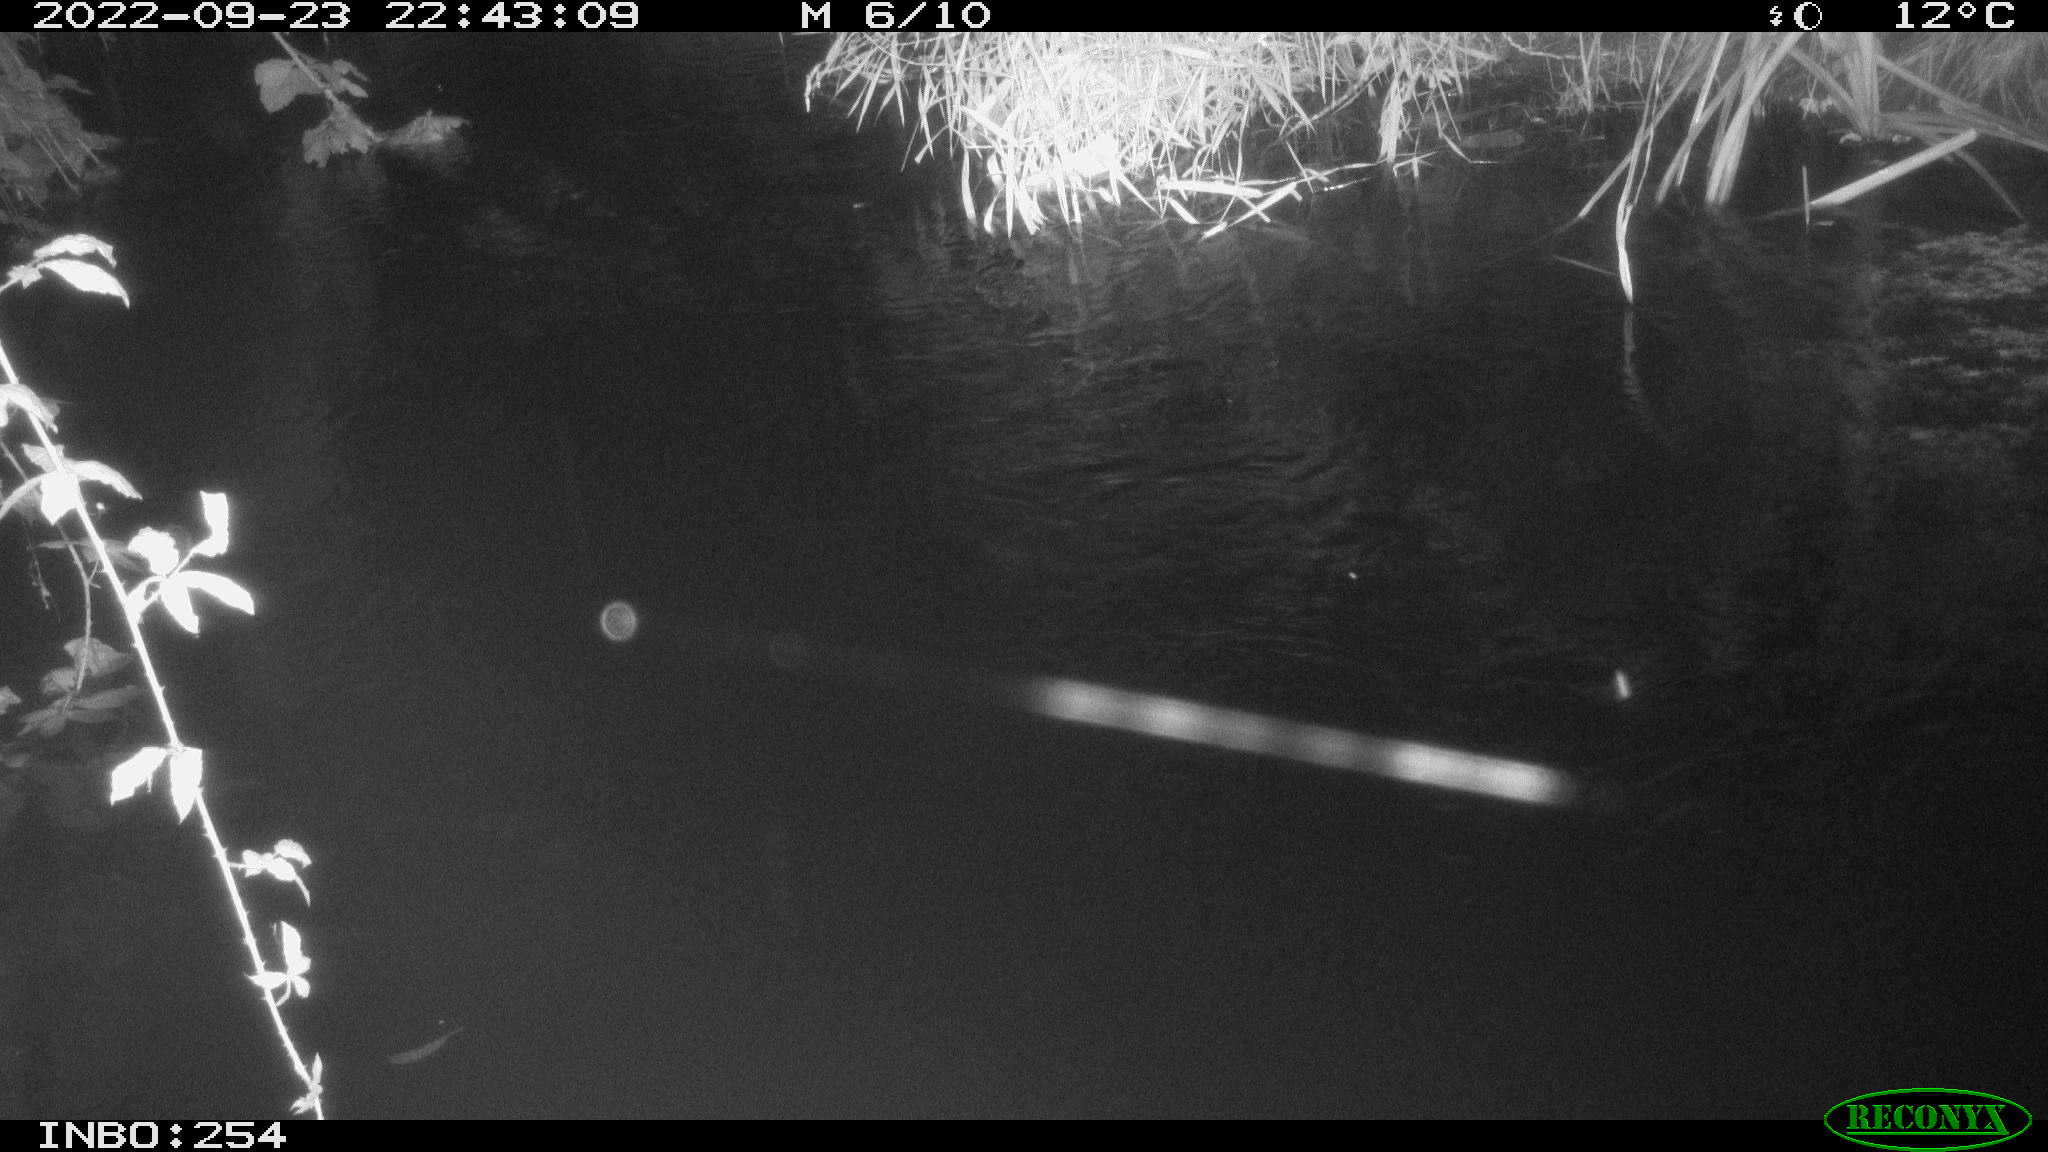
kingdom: Animalia
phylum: Chordata
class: Aves
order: Anseriformes
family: Anatidae
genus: Anas
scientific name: Anas
